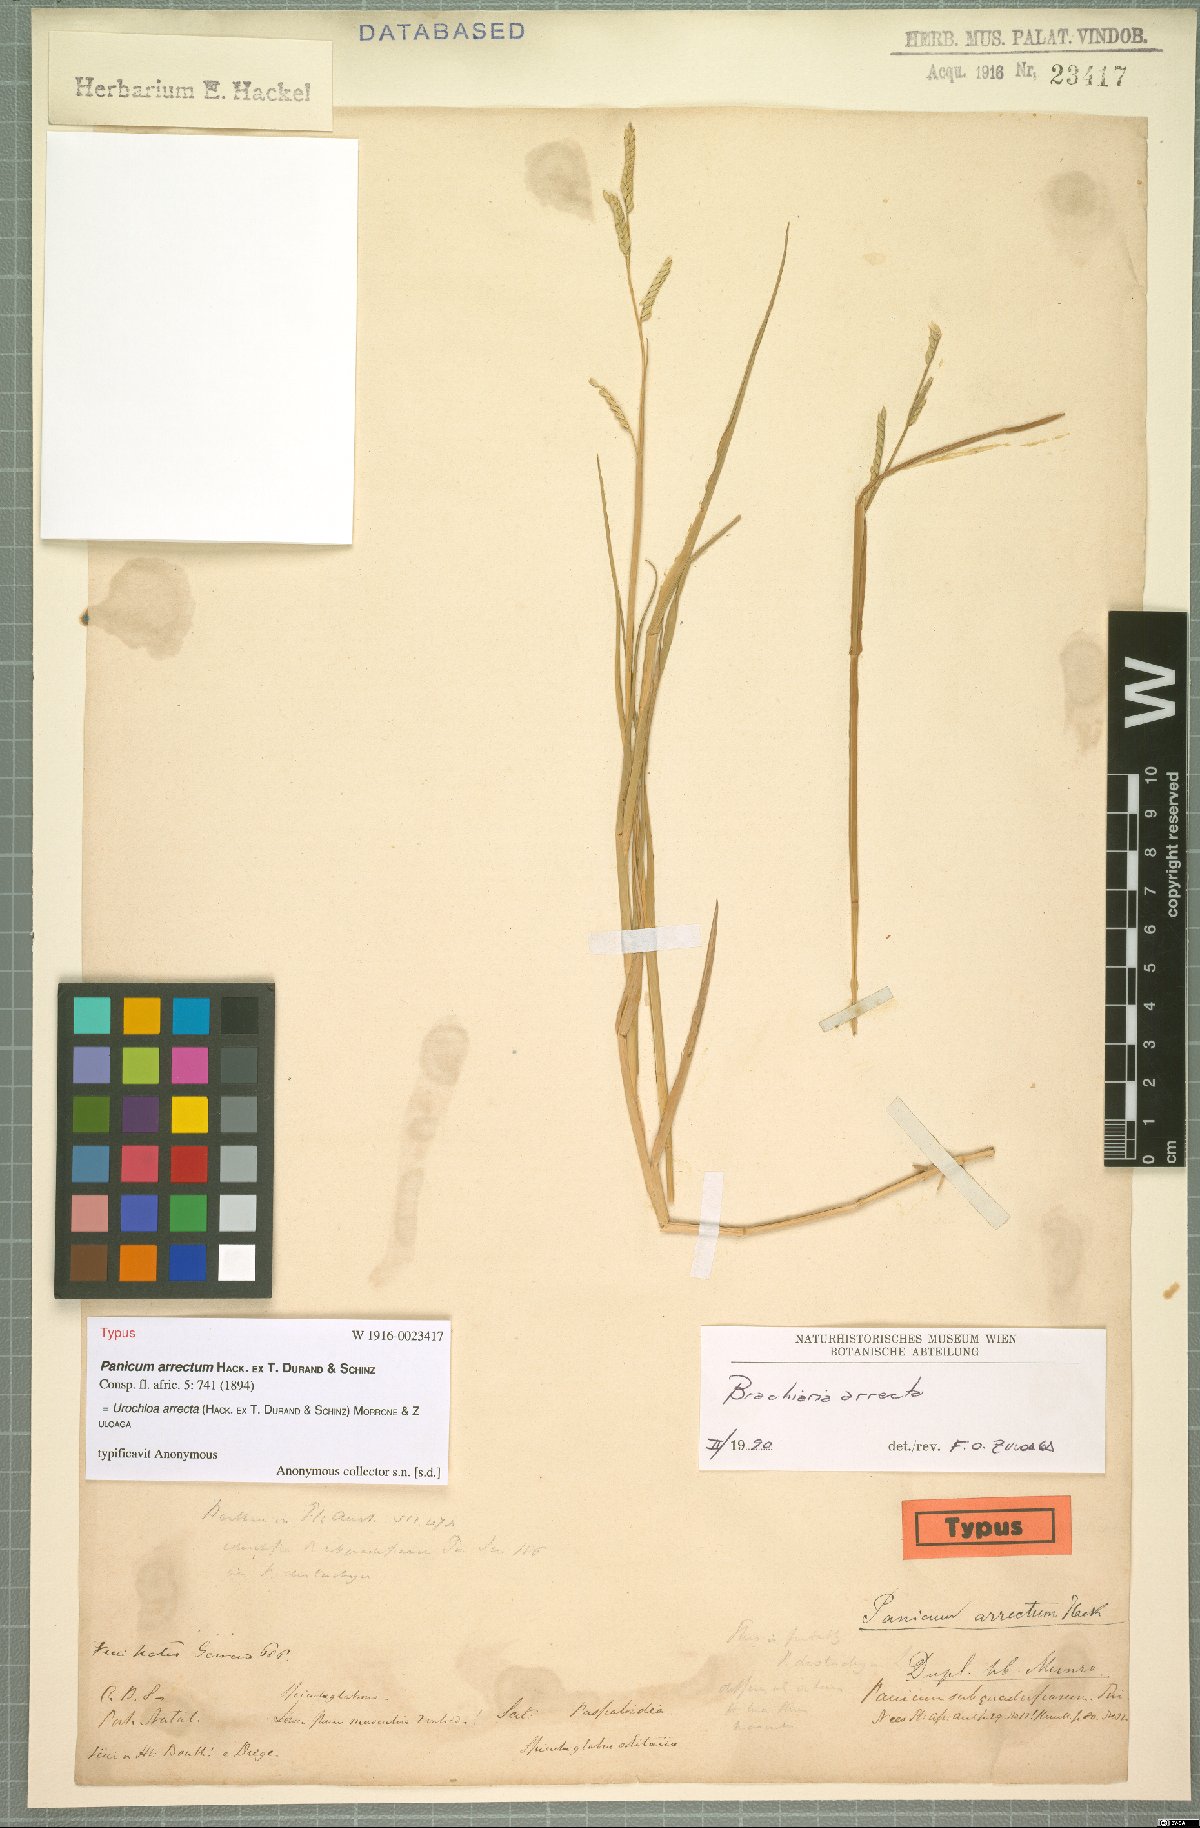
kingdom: Plantae
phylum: Tracheophyta
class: Liliopsida
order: Poales
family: Poaceae
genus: Urochloa
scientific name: Urochloa arrecta
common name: African signalgrass
